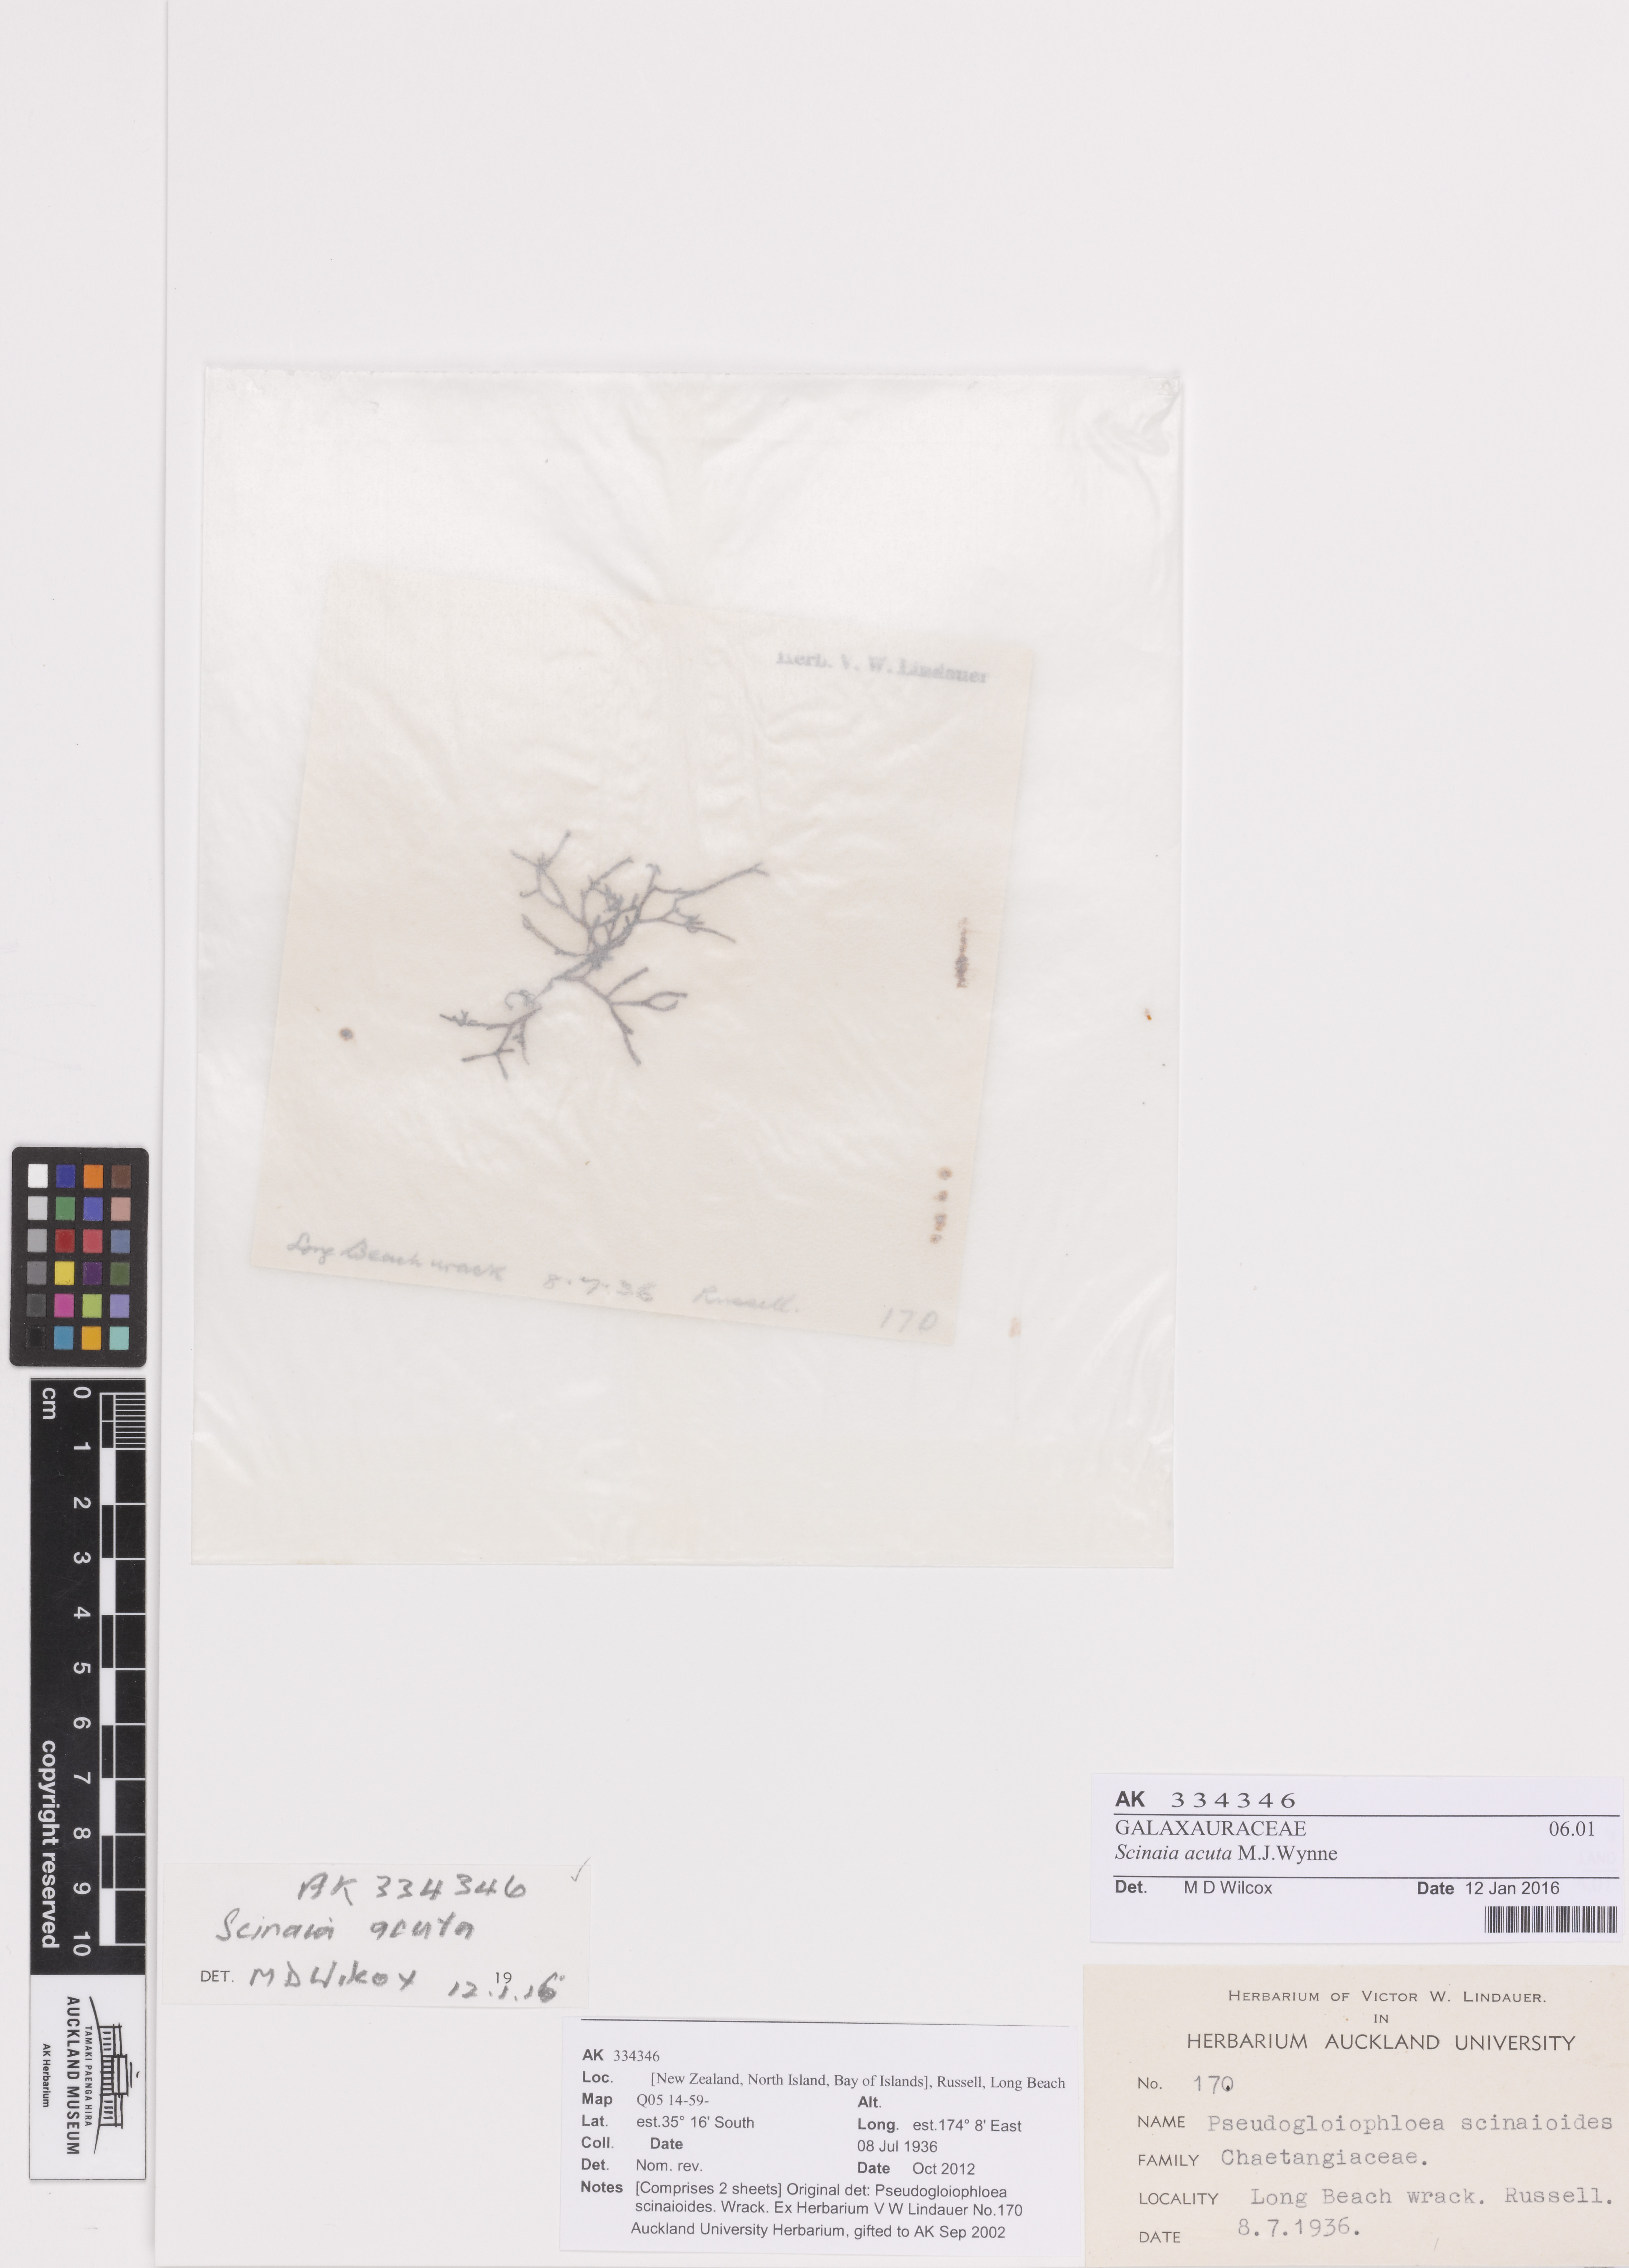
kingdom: Plantae
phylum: Rhodophyta
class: Florideophyceae
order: Nemaliales
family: Scinaiaceae
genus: Scinaia
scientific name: Scinaia acuta
